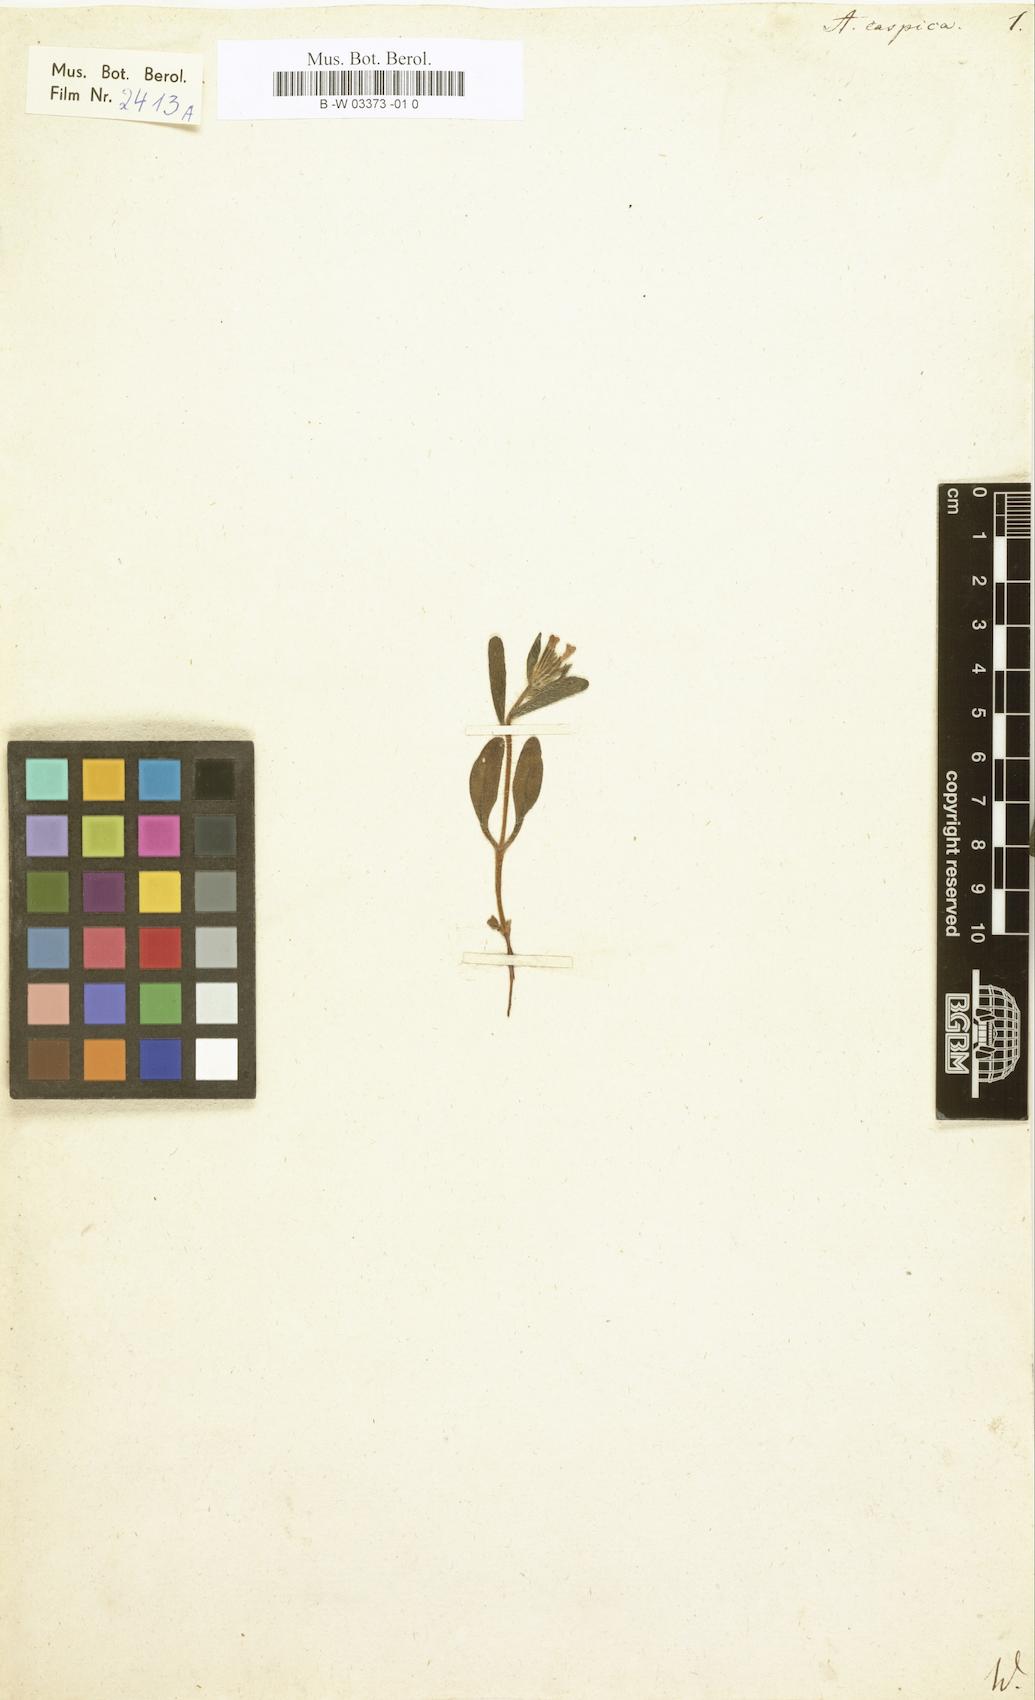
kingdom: Plantae
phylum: Tracheophyta
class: Magnoliopsida
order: Boraginales
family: Boraginaceae
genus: Nonea
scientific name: Nonea caspica
